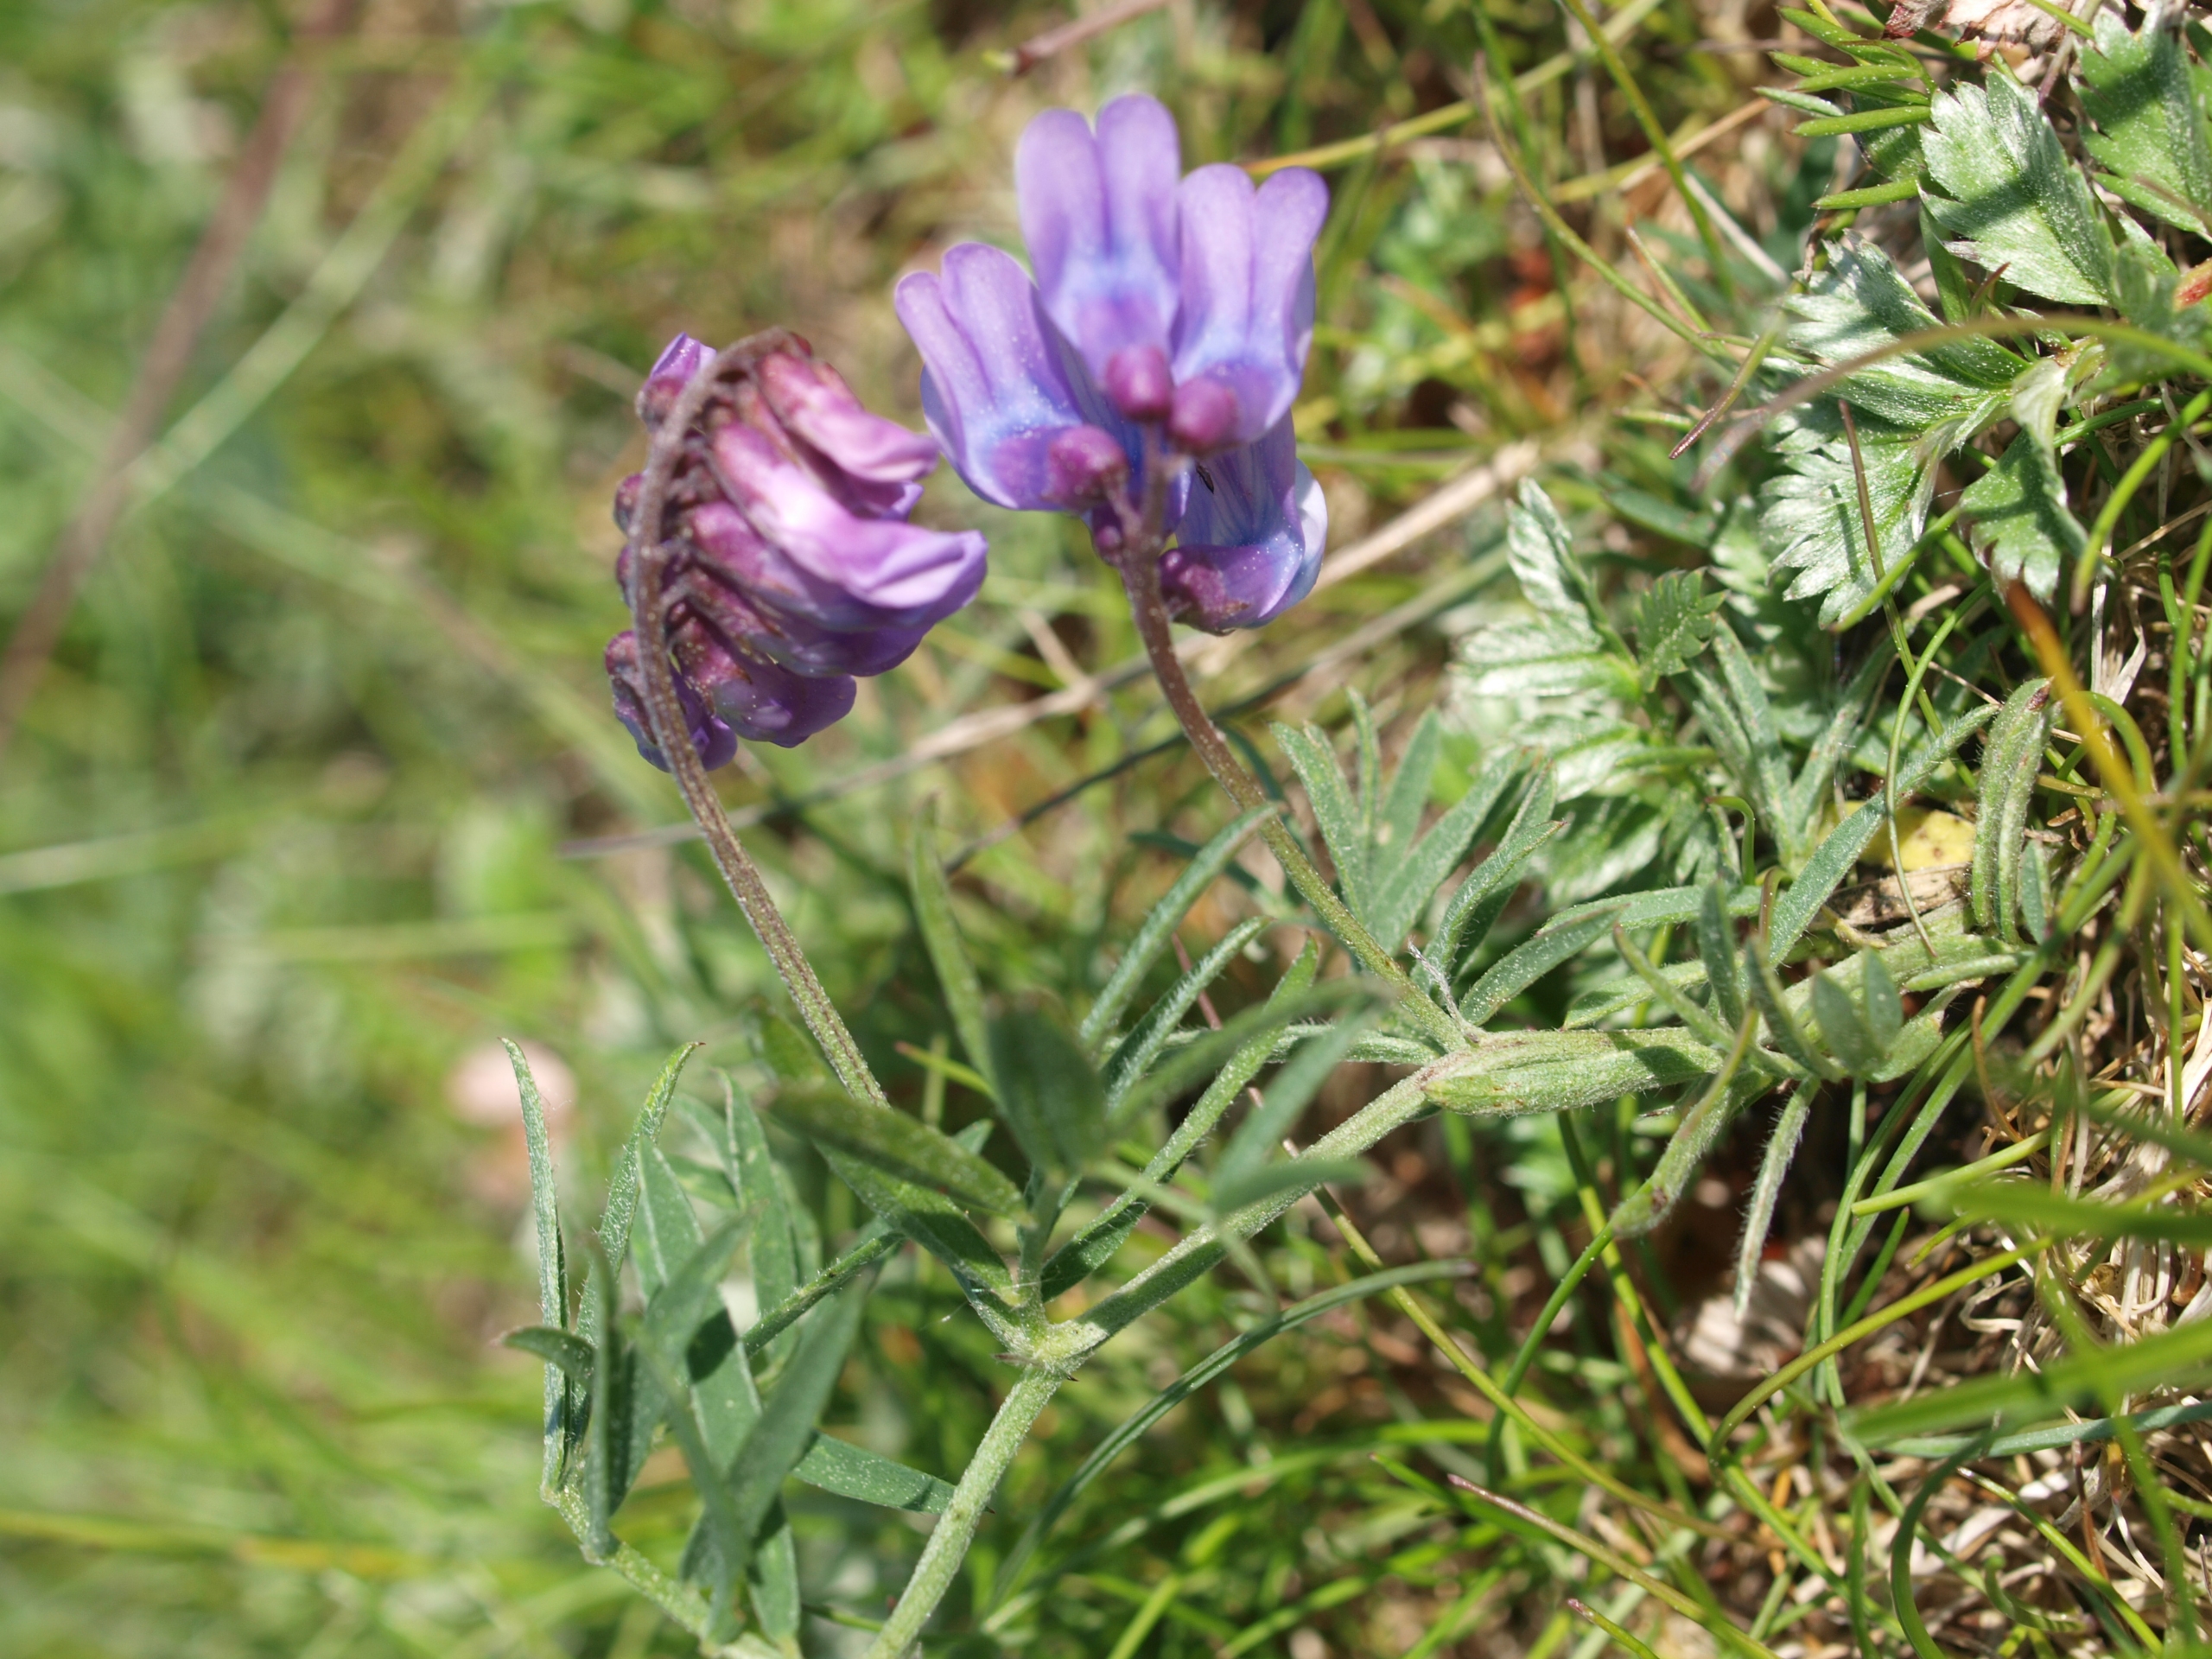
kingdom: Plantae
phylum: Tracheophyta
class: Magnoliopsida
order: Fabales
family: Fabaceae
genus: Vicia
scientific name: Vicia cracca
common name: Muse-vikke
